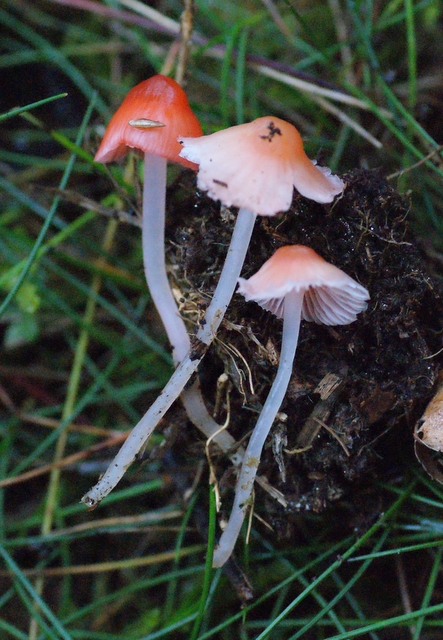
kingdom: Fungi
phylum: Basidiomycota
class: Agaricomycetes
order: Agaricales
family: Mycenaceae
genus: Atheniella
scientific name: Atheniella adonis
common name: rønnerød huesvamp
